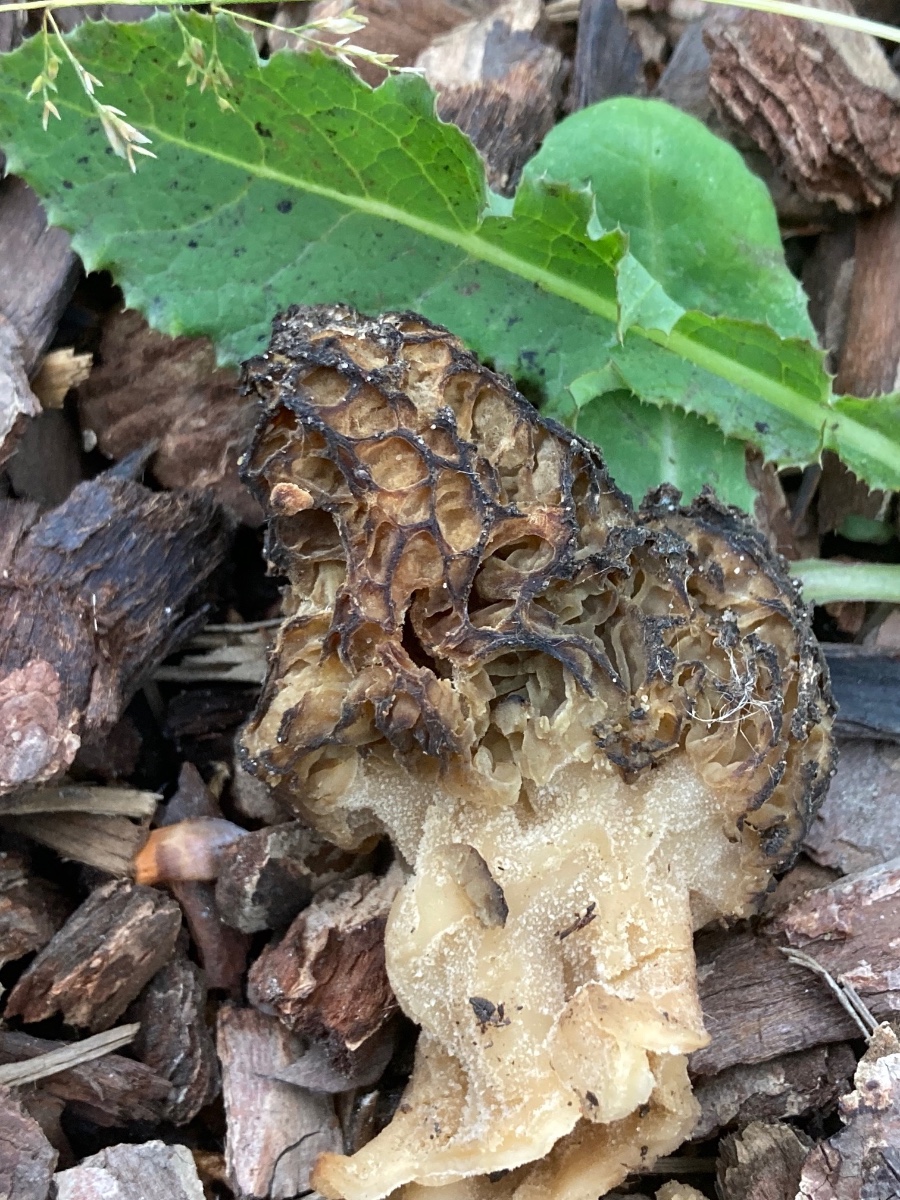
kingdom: Fungi
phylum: Ascomycota
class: Pezizomycetes
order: Pezizales
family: Morchellaceae
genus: Morchella
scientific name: Morchella importuna
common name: Landscaping black morel
